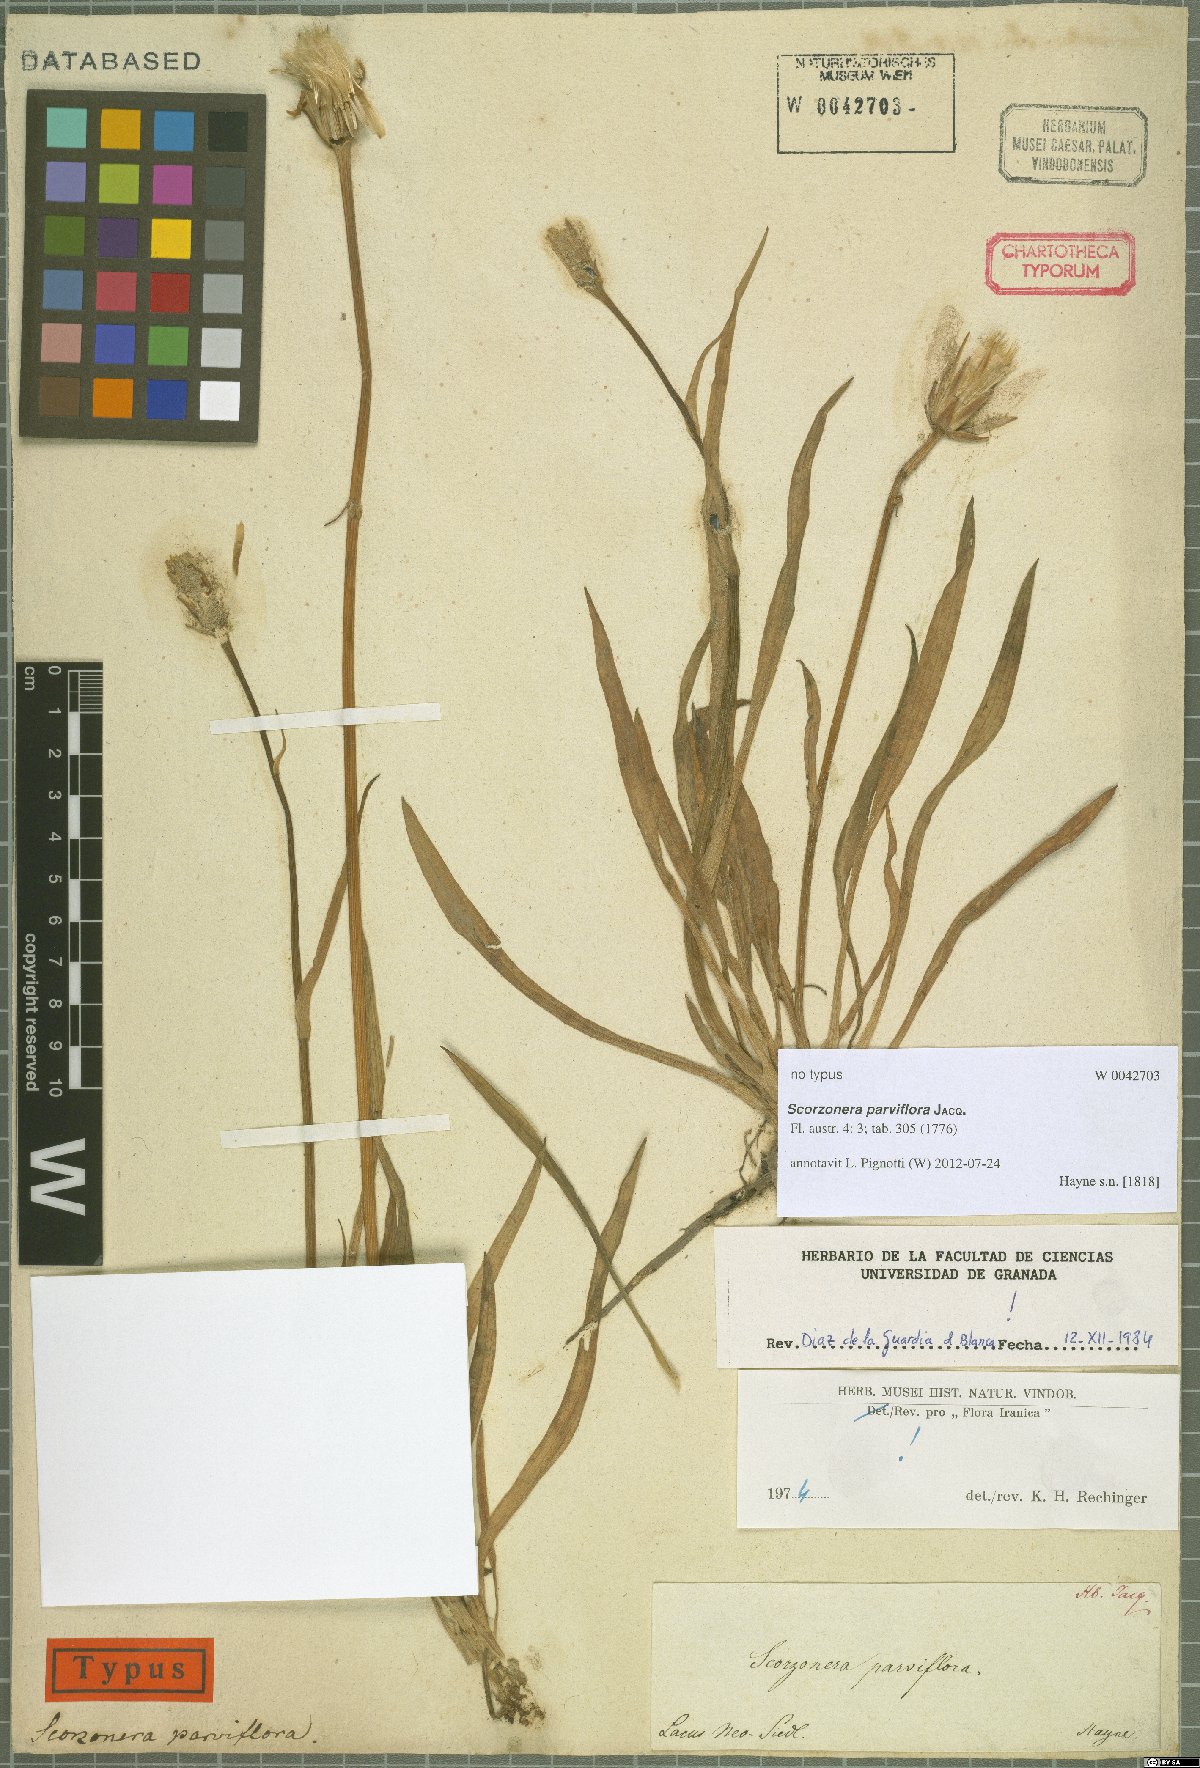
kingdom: Plantae
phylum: Tracheophyta
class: Magnoliopsida
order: Asterales
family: Asteraceae
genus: Scorzonera
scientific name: Scorzonera parviflora
